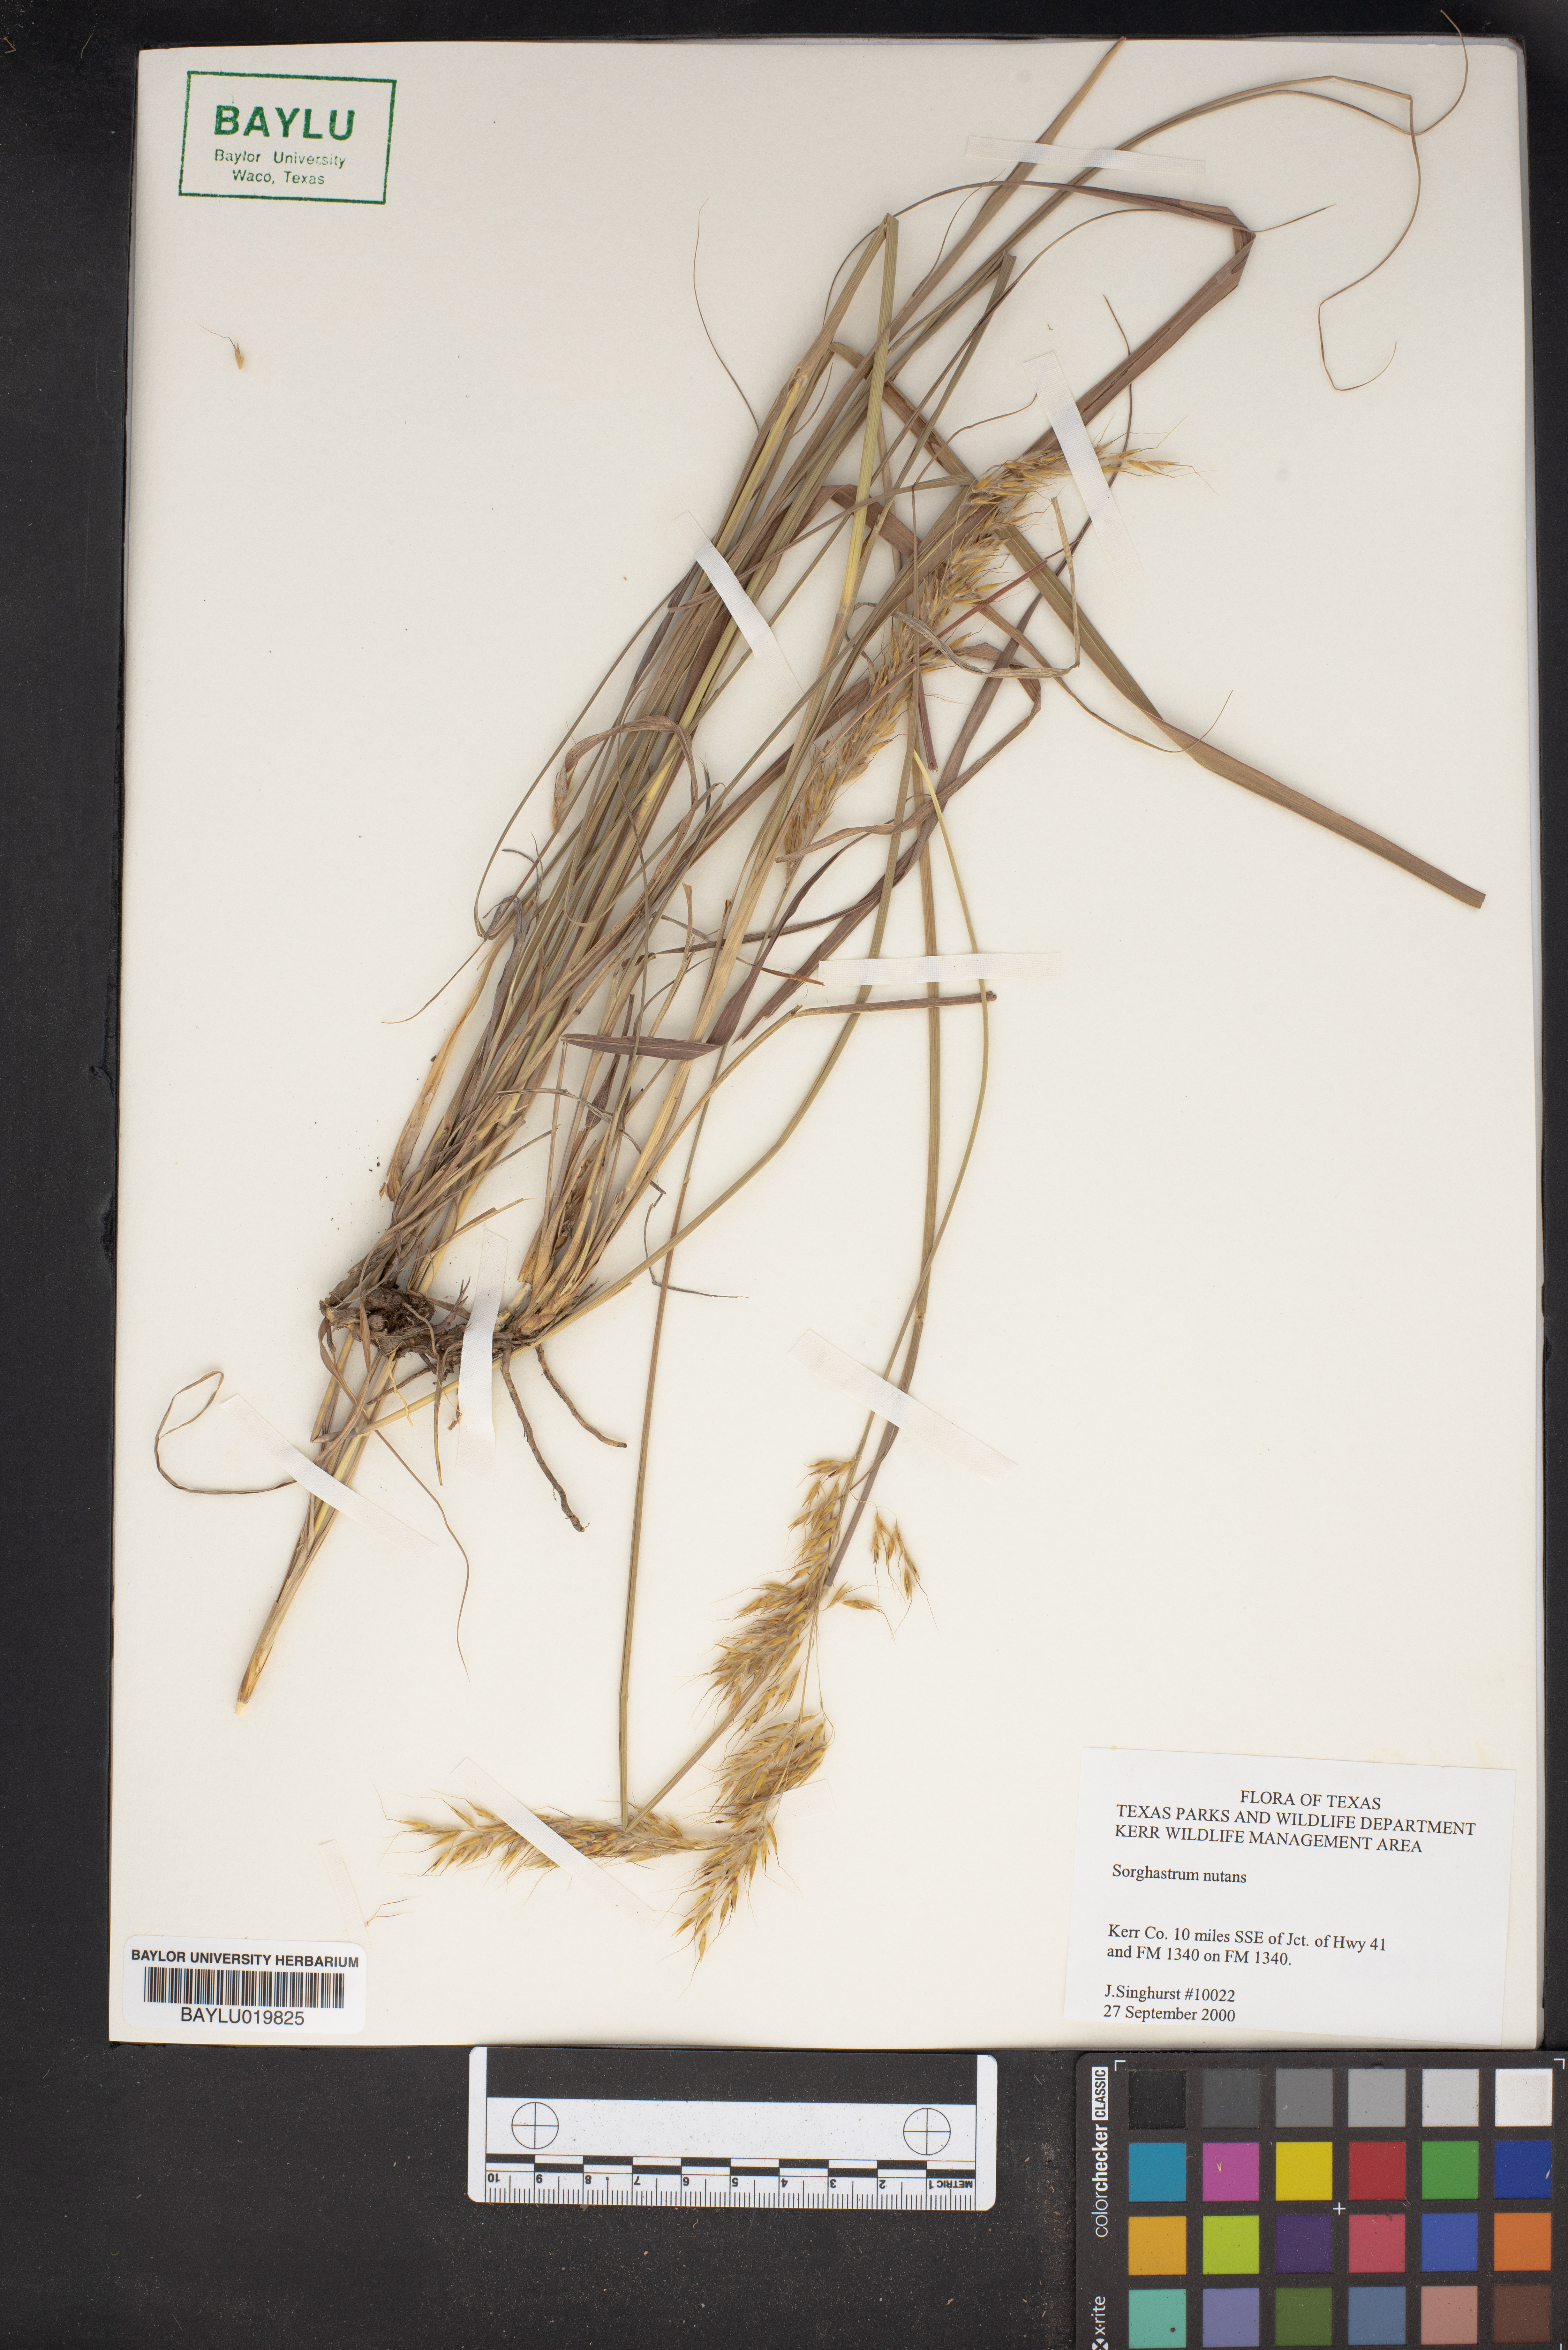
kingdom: Plantae
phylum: Tracheophyta
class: Liliopsida
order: Poales
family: Poaceae
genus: Sorghastrum
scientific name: Sorghastrum nutans
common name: Indian grass
